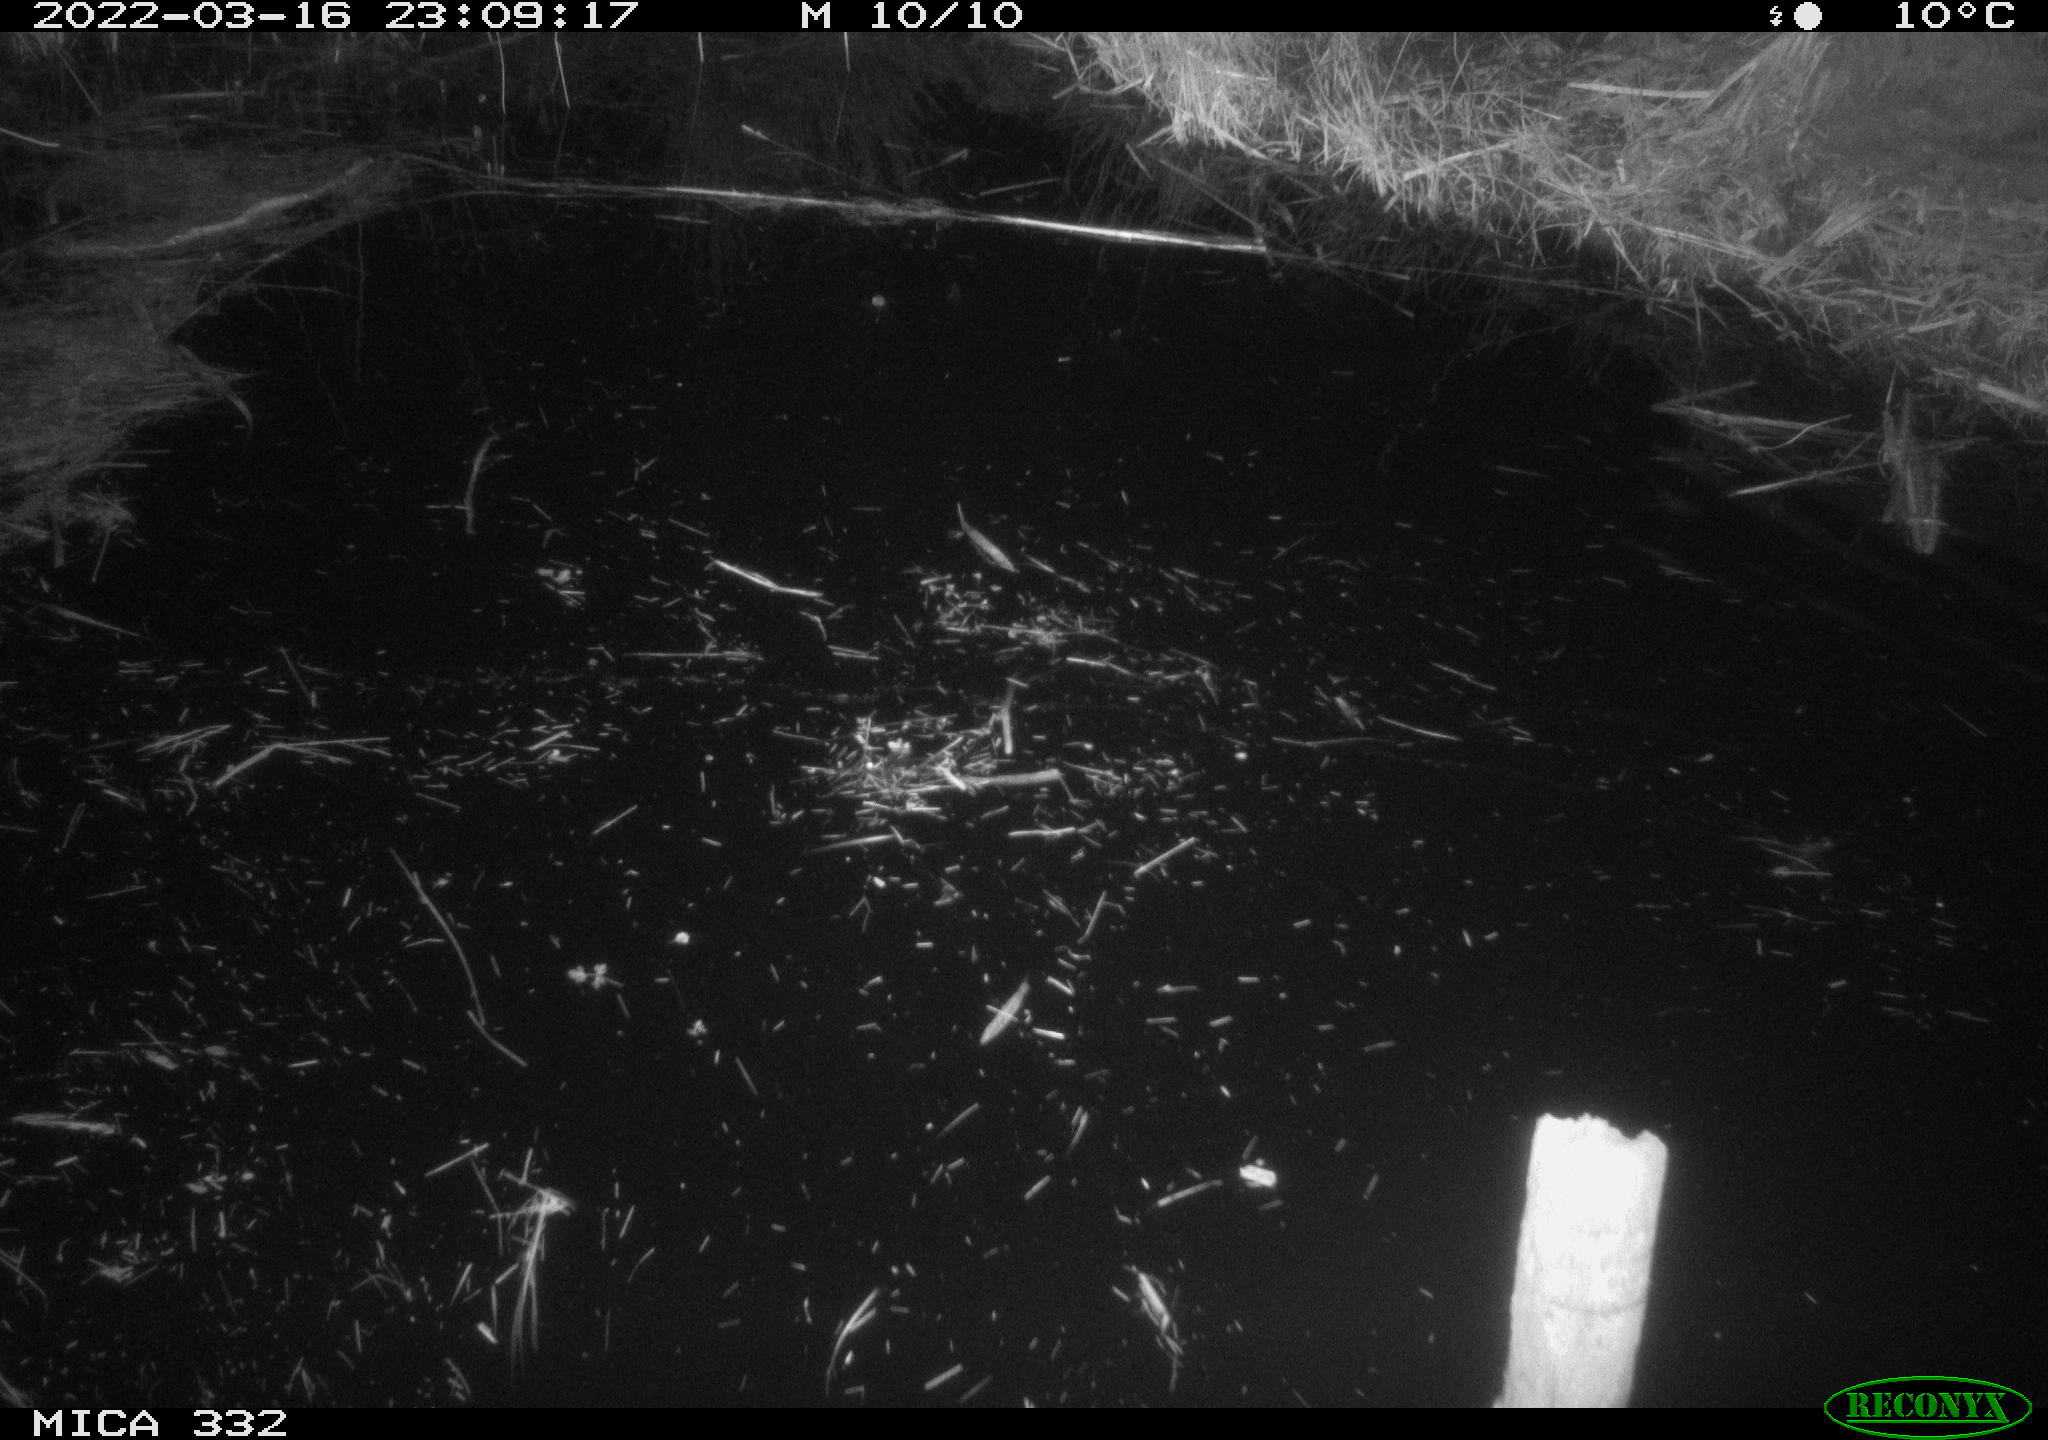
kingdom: Animalia
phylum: Chordata
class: Aves
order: Anseriformes
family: Anatidae
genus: Anas
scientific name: Anas platyrhynchos
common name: Mallard
